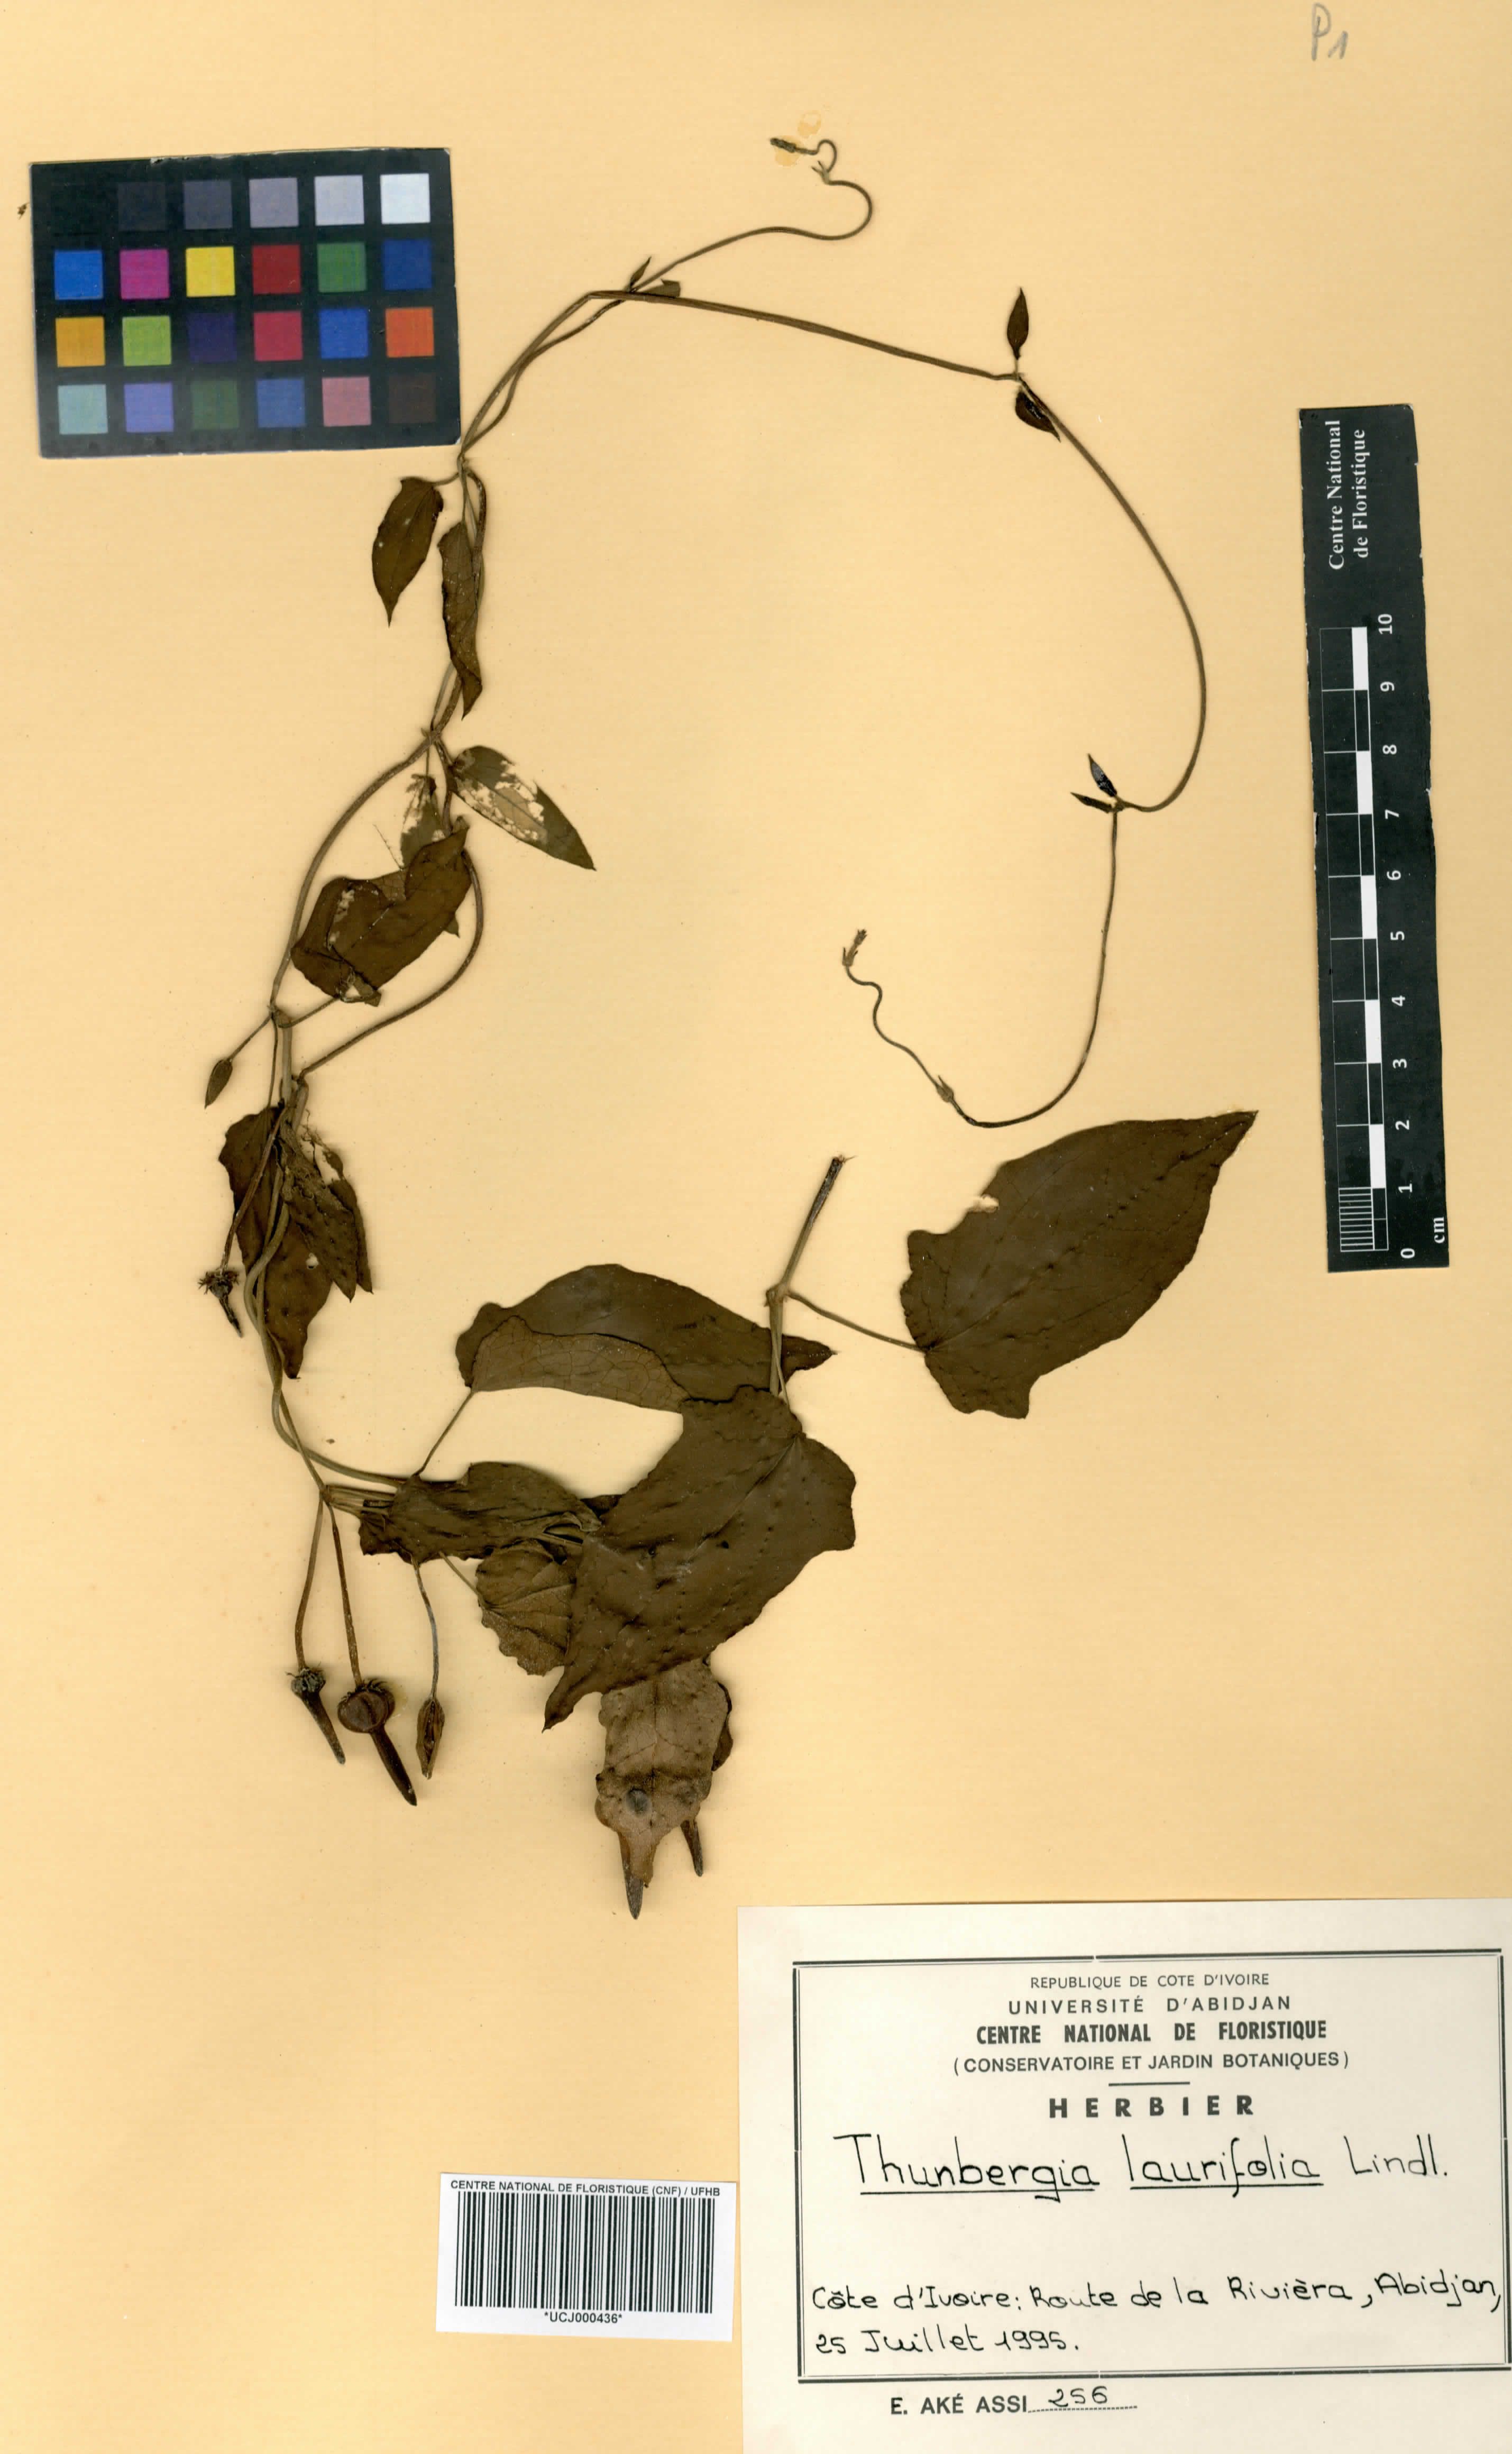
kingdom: Plantae
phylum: Tracheophyta
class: Magnoliopsida
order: Lamiales
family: Acanthaceae
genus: Thunbergia
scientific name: Thunbergia laurifolia
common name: Laurel-leaved thunbergia
